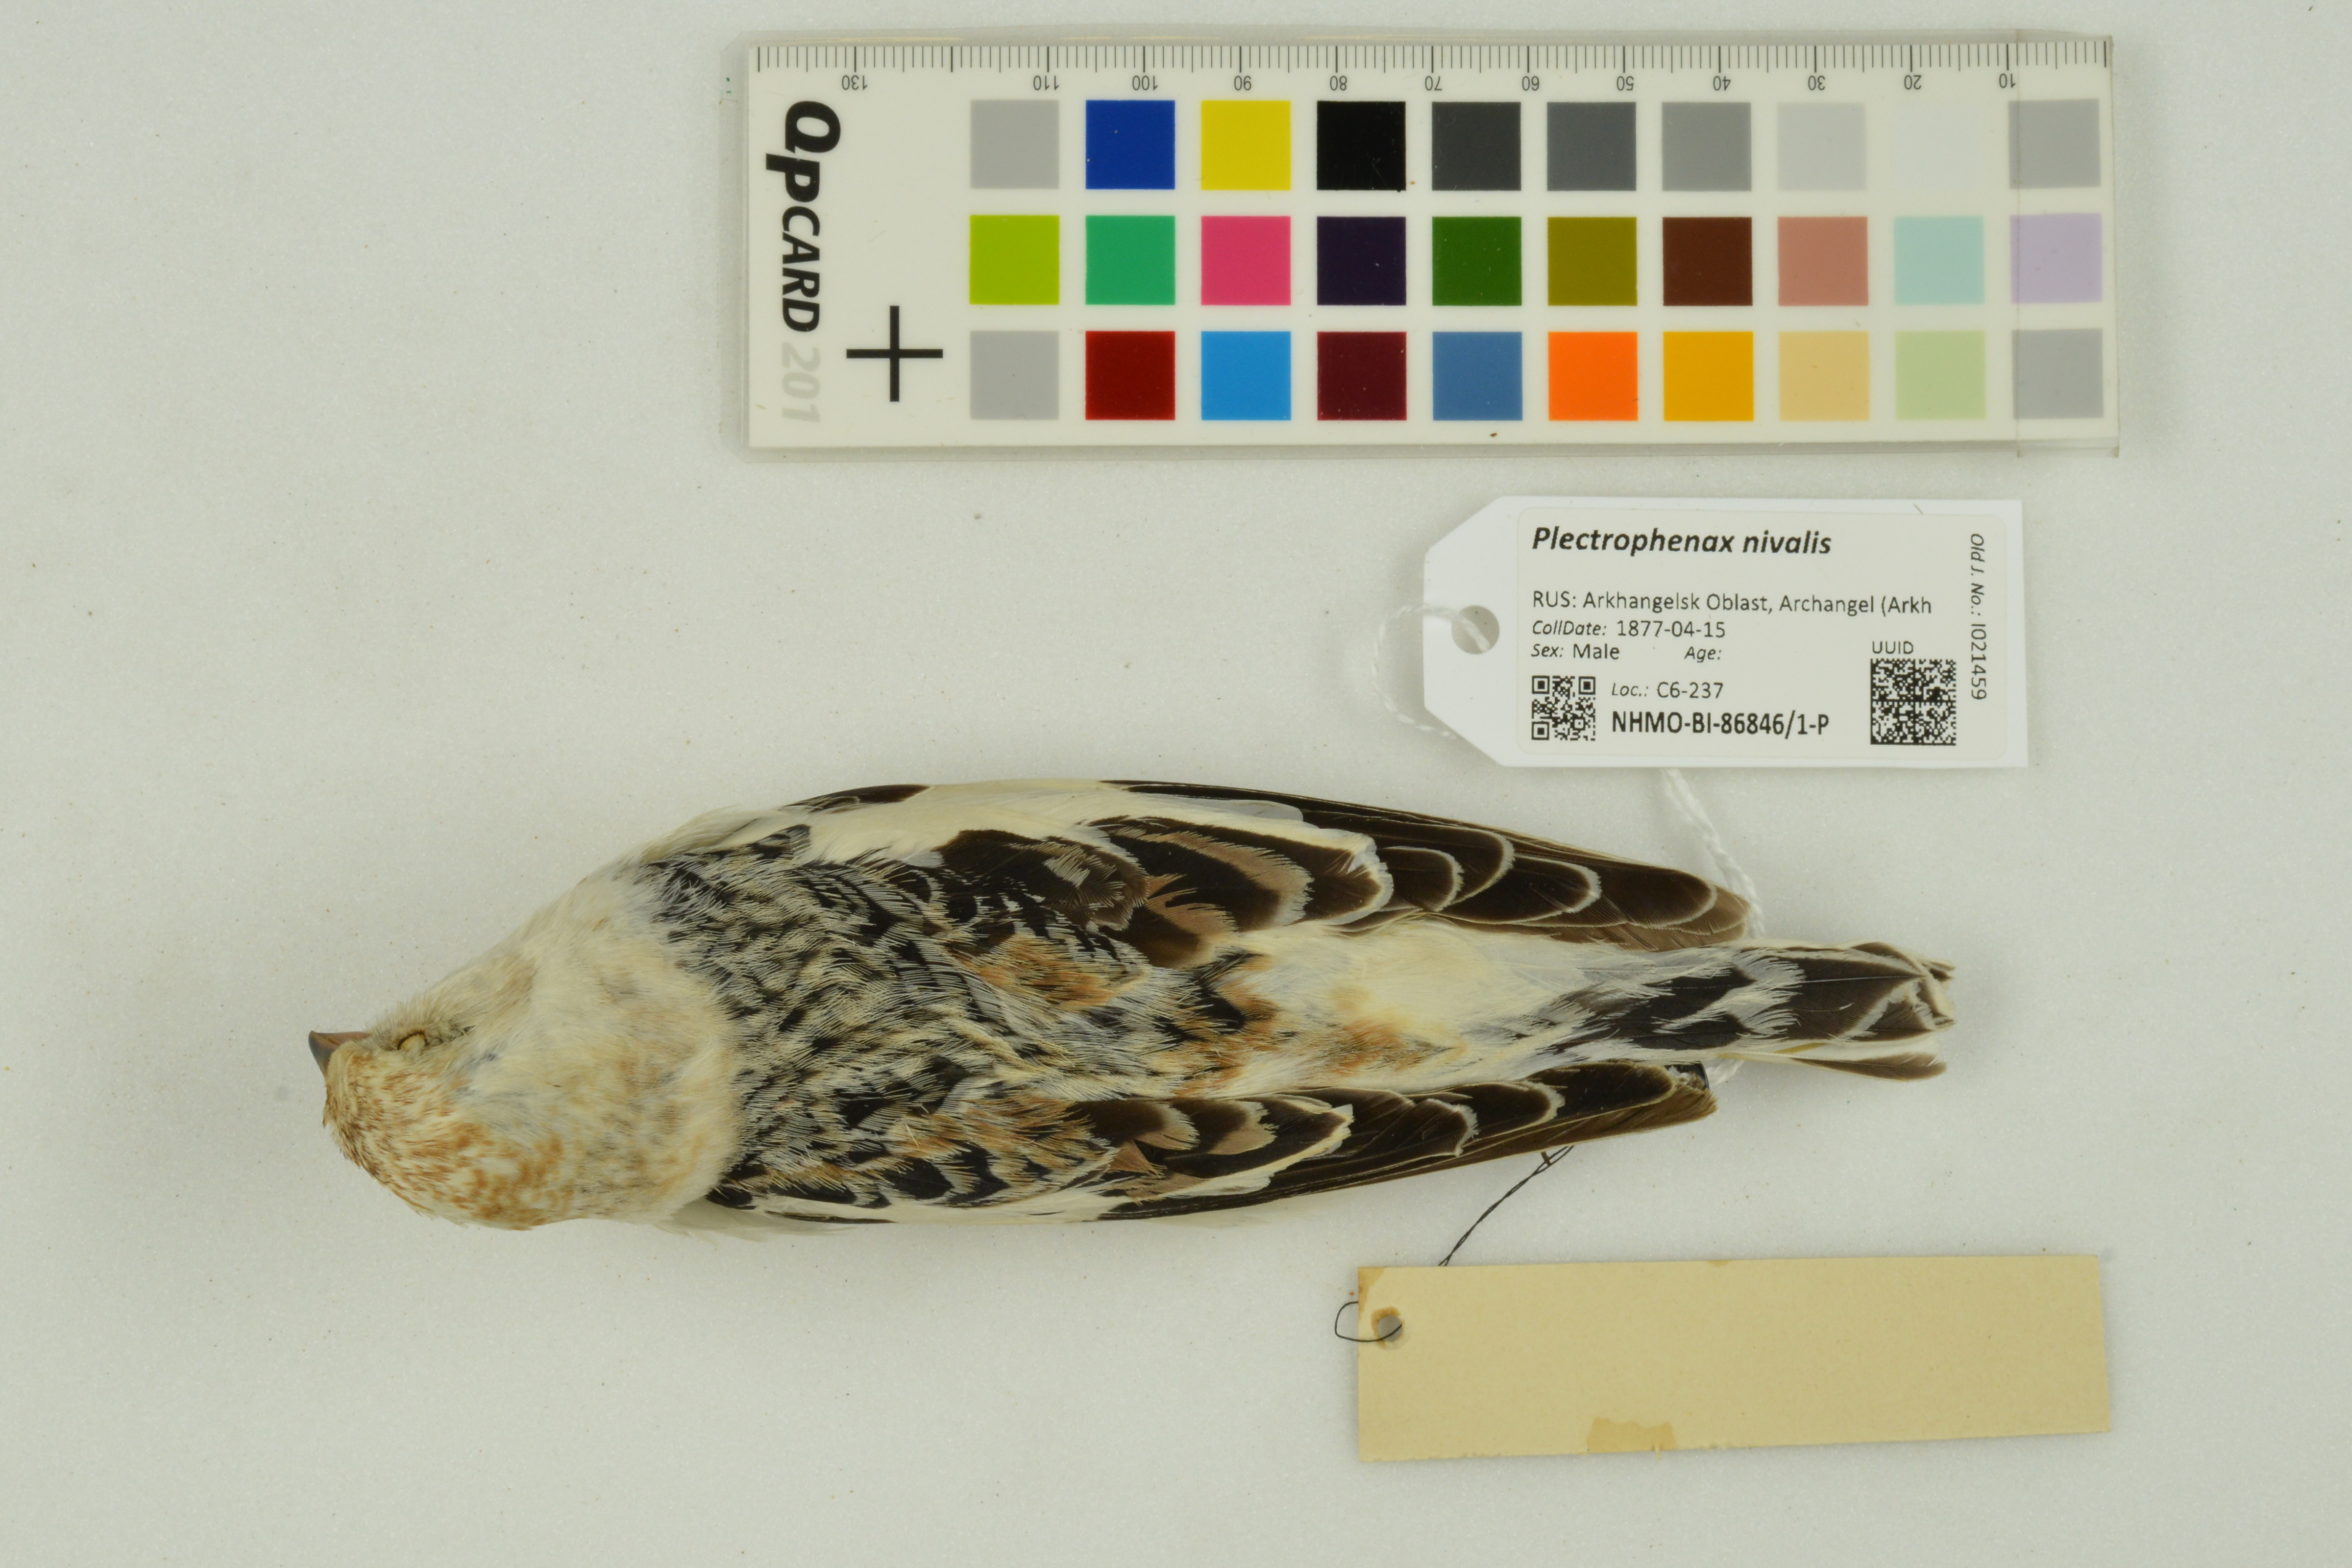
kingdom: Animalia
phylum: Chordata
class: Aves
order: Passeriformes
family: Calcariidae
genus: Plectrophenax
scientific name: Plectrophenax nivalis
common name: Snow bunting
